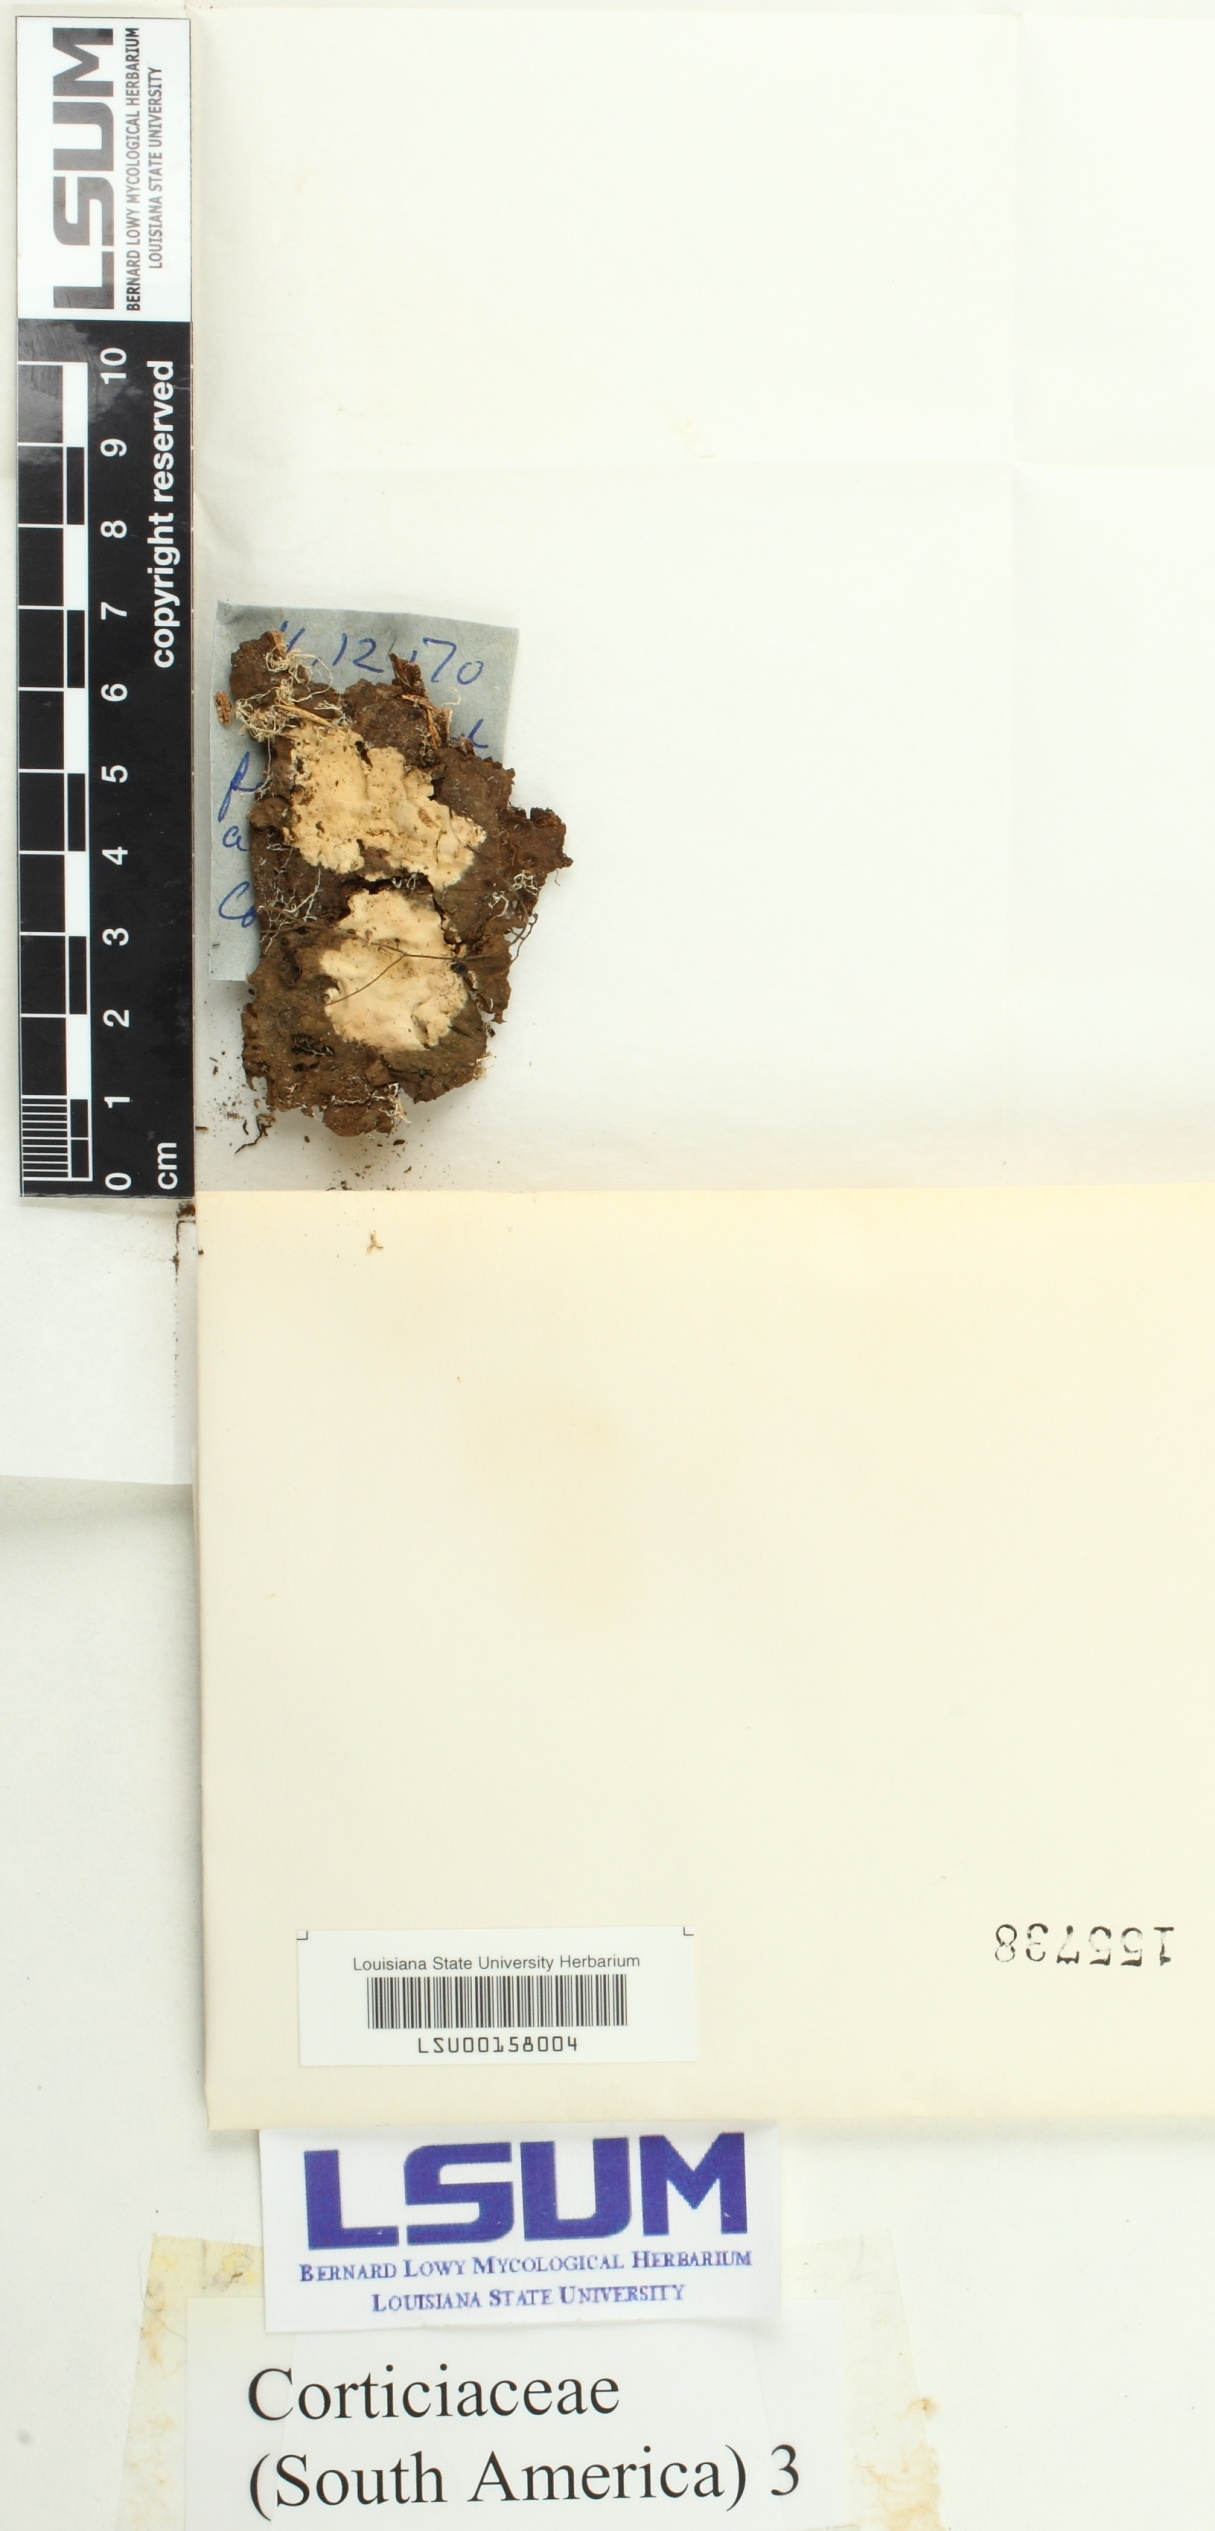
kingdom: Fungi
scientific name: Fungi
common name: Fungi
